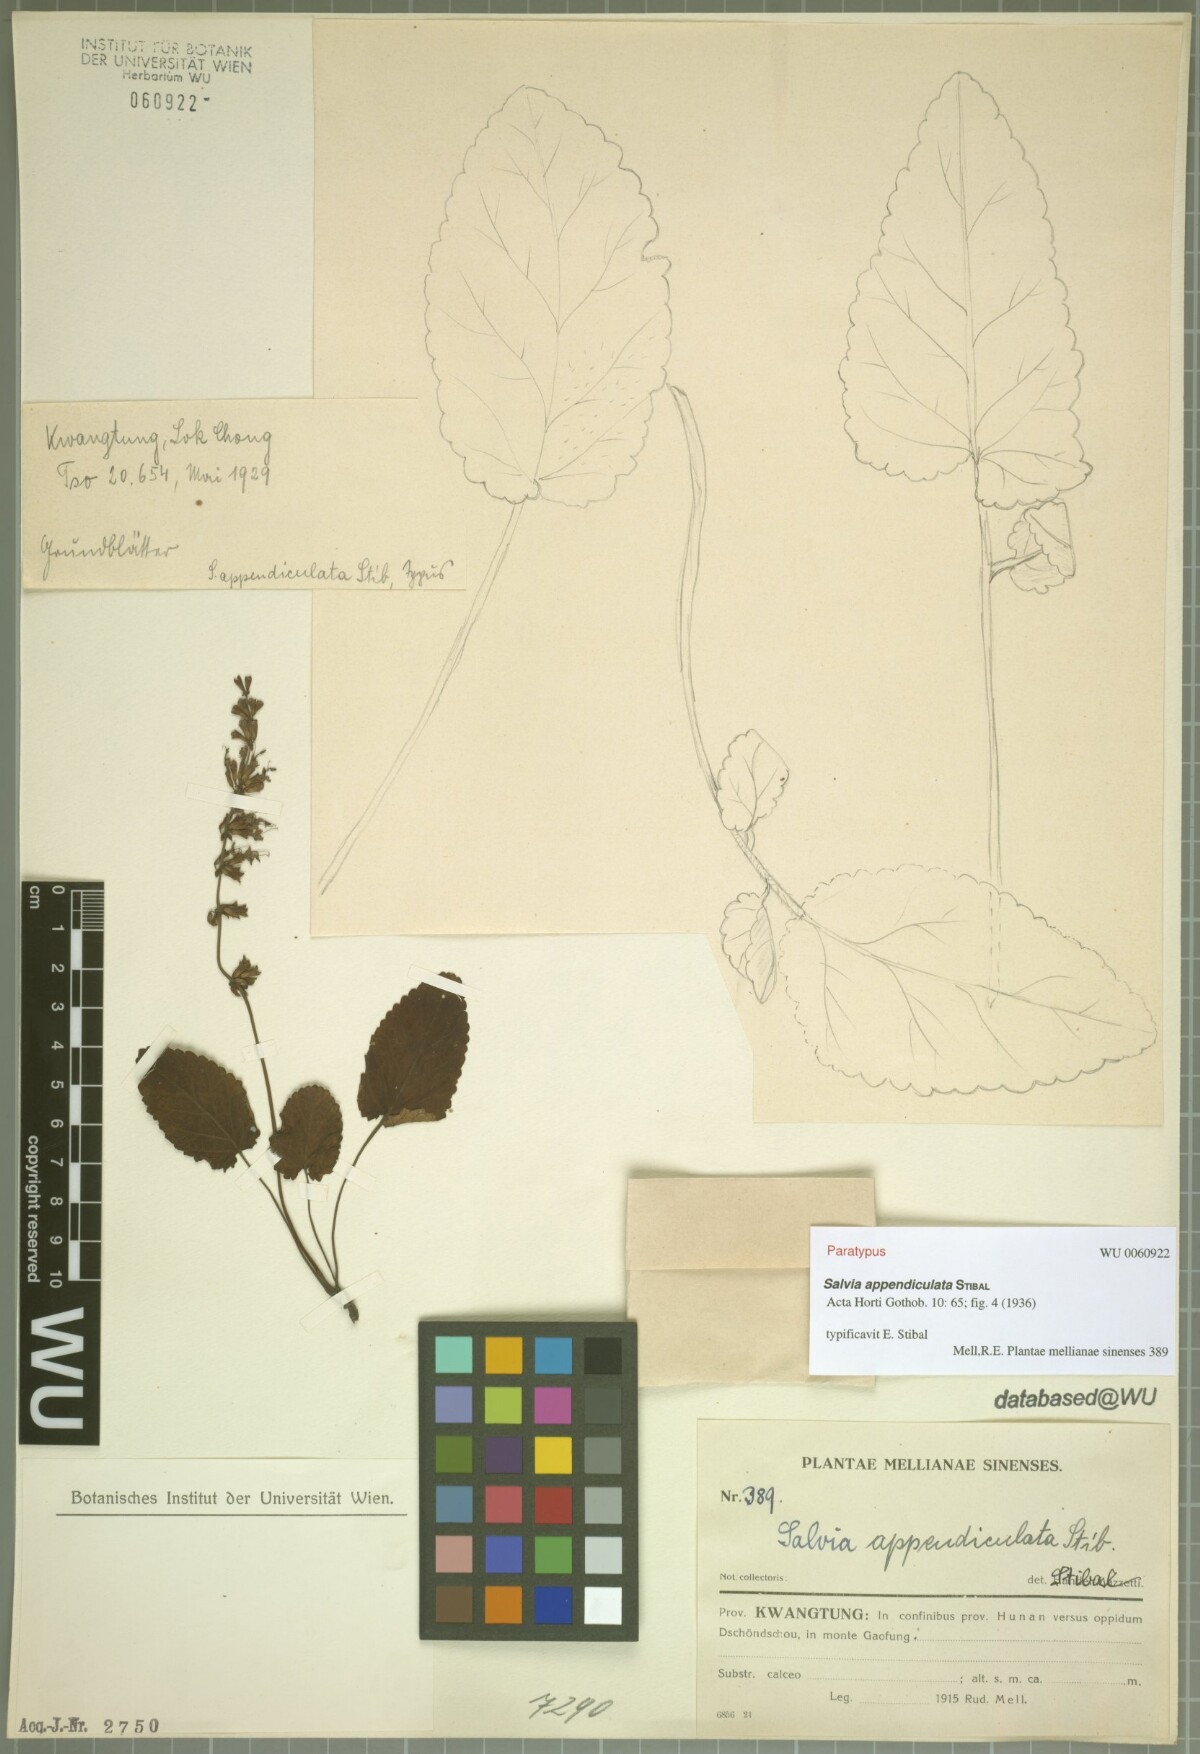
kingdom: Plantae
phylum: Tracheophyta
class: Magnoliopsida
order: Lamiales
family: Lamiaceae
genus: Salvia
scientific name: Salvia appendiculata
